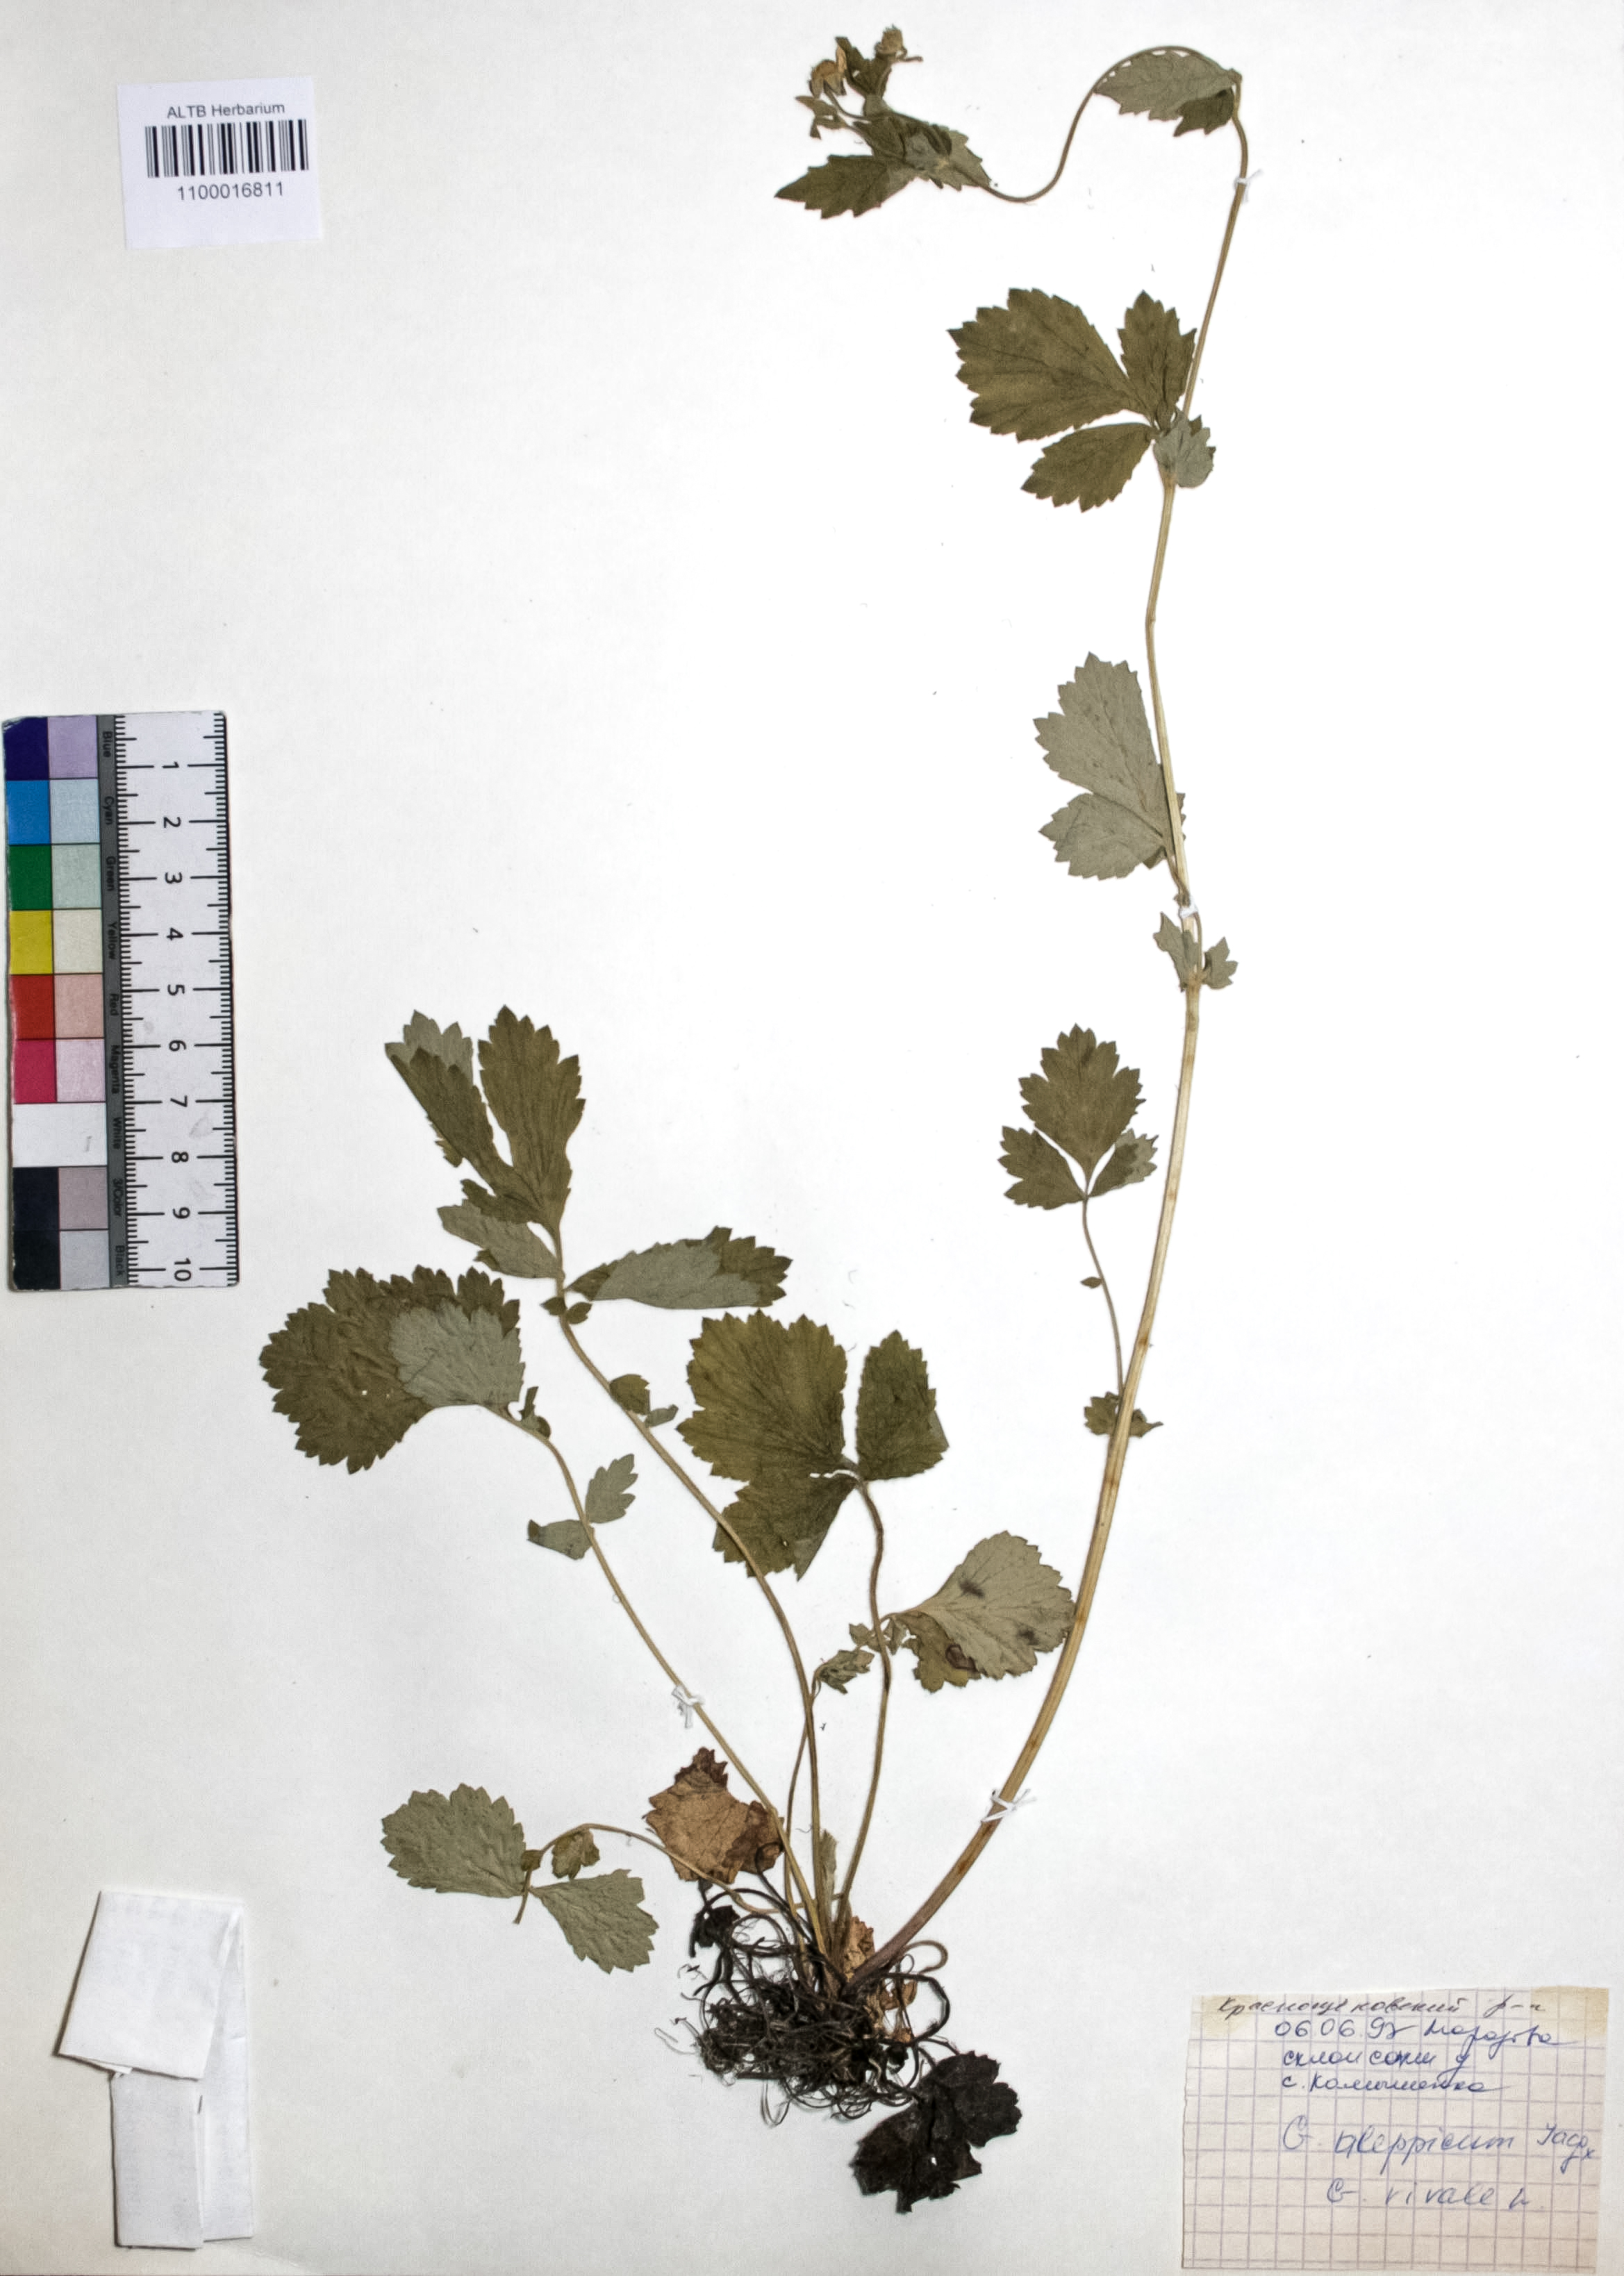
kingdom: Plantae
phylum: Tracheophyta
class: Magnoliopsida
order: Rosales
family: Rosaceae
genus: Geum
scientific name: Geum aleppicum
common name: Yellow avens
